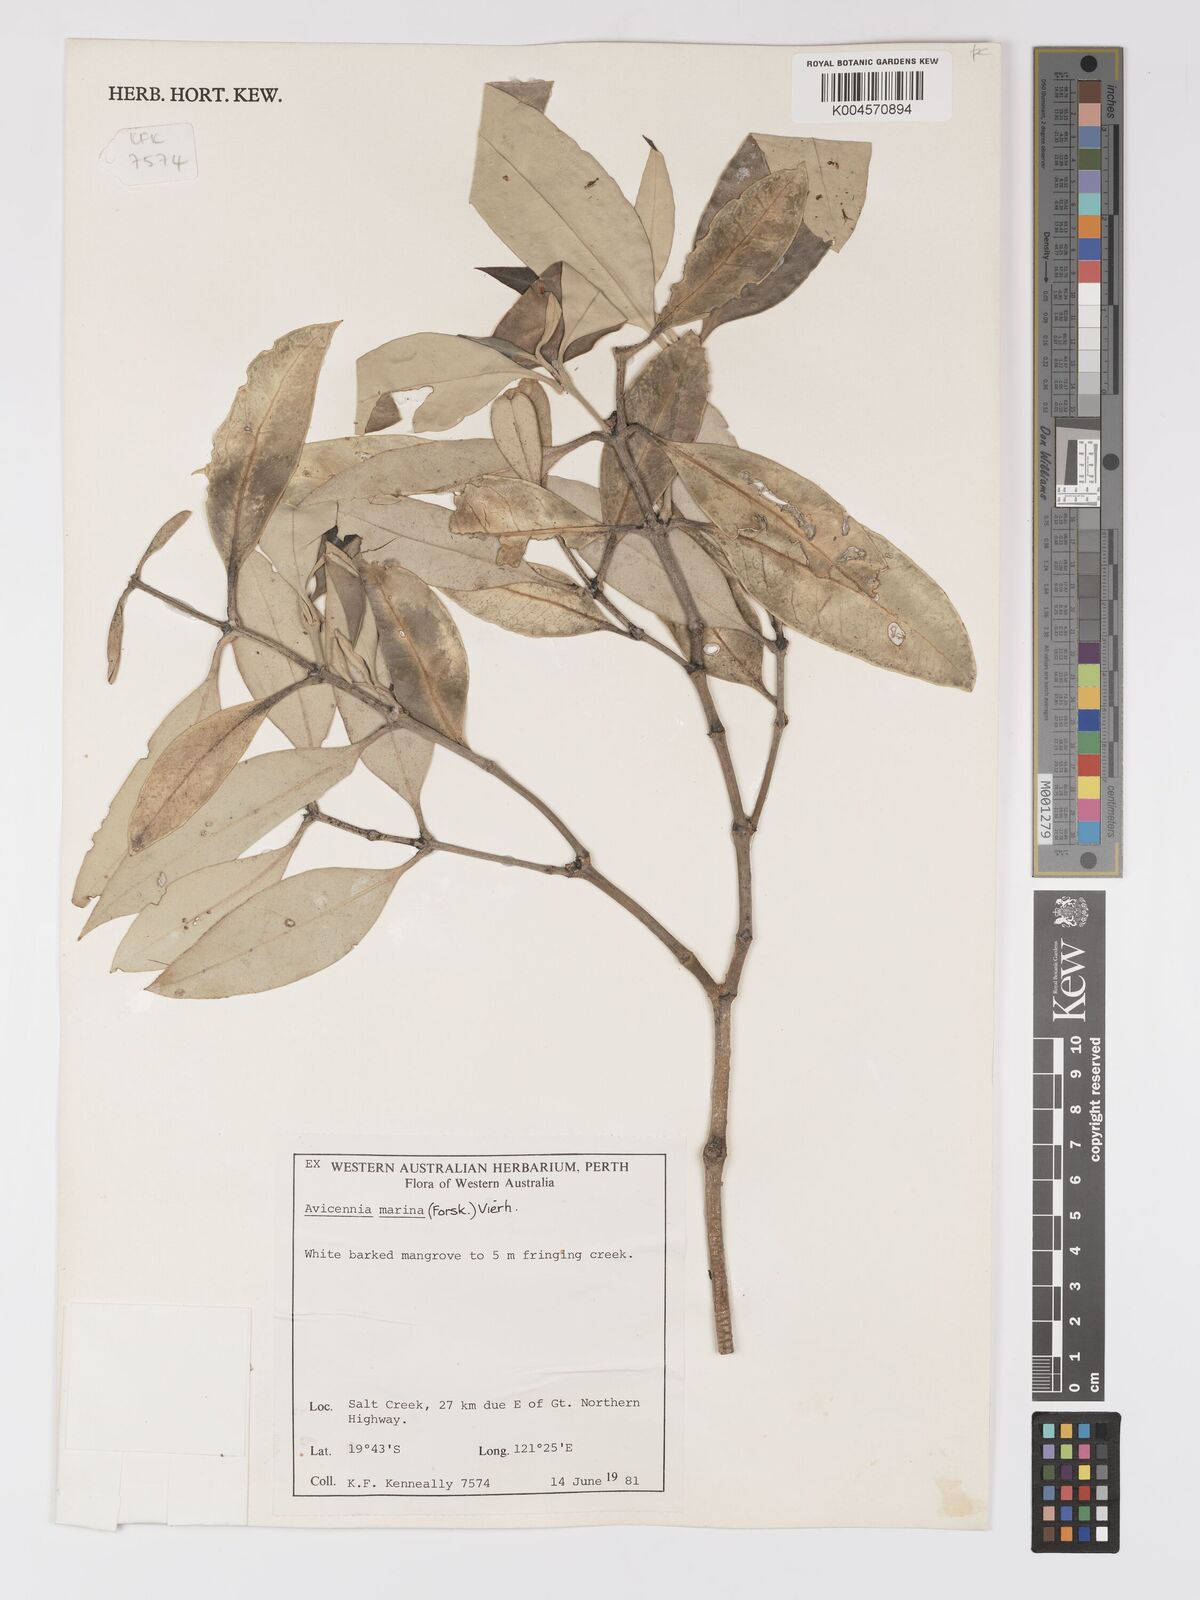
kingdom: Plantae
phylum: Tracheophyta
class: Magnoliopsida
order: Lamiales
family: Acanthaceae
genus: Avicennia
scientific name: Avicennia marina
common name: Gray mangrove
